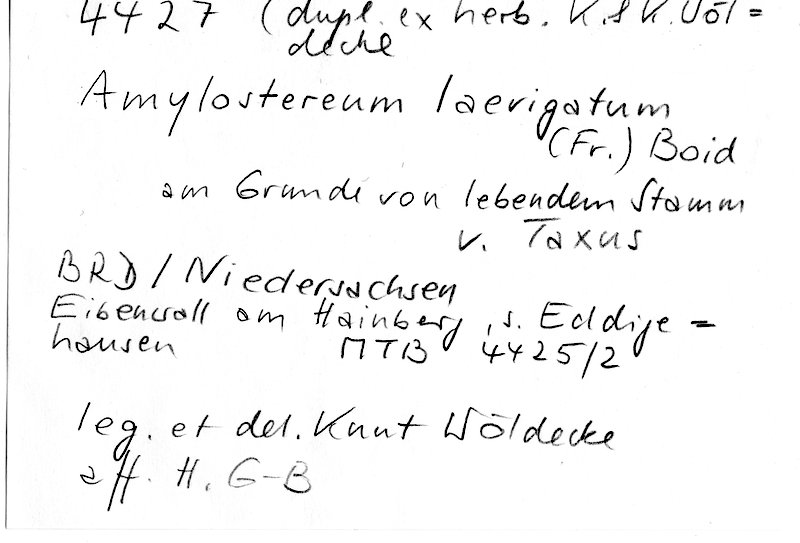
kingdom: Fungi
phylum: Basidiomycota
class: Agaricomycetes
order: Russulales
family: Echinodontiaceae
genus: Amylostereum
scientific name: Amylostereum laevigatum
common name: Yew duster
